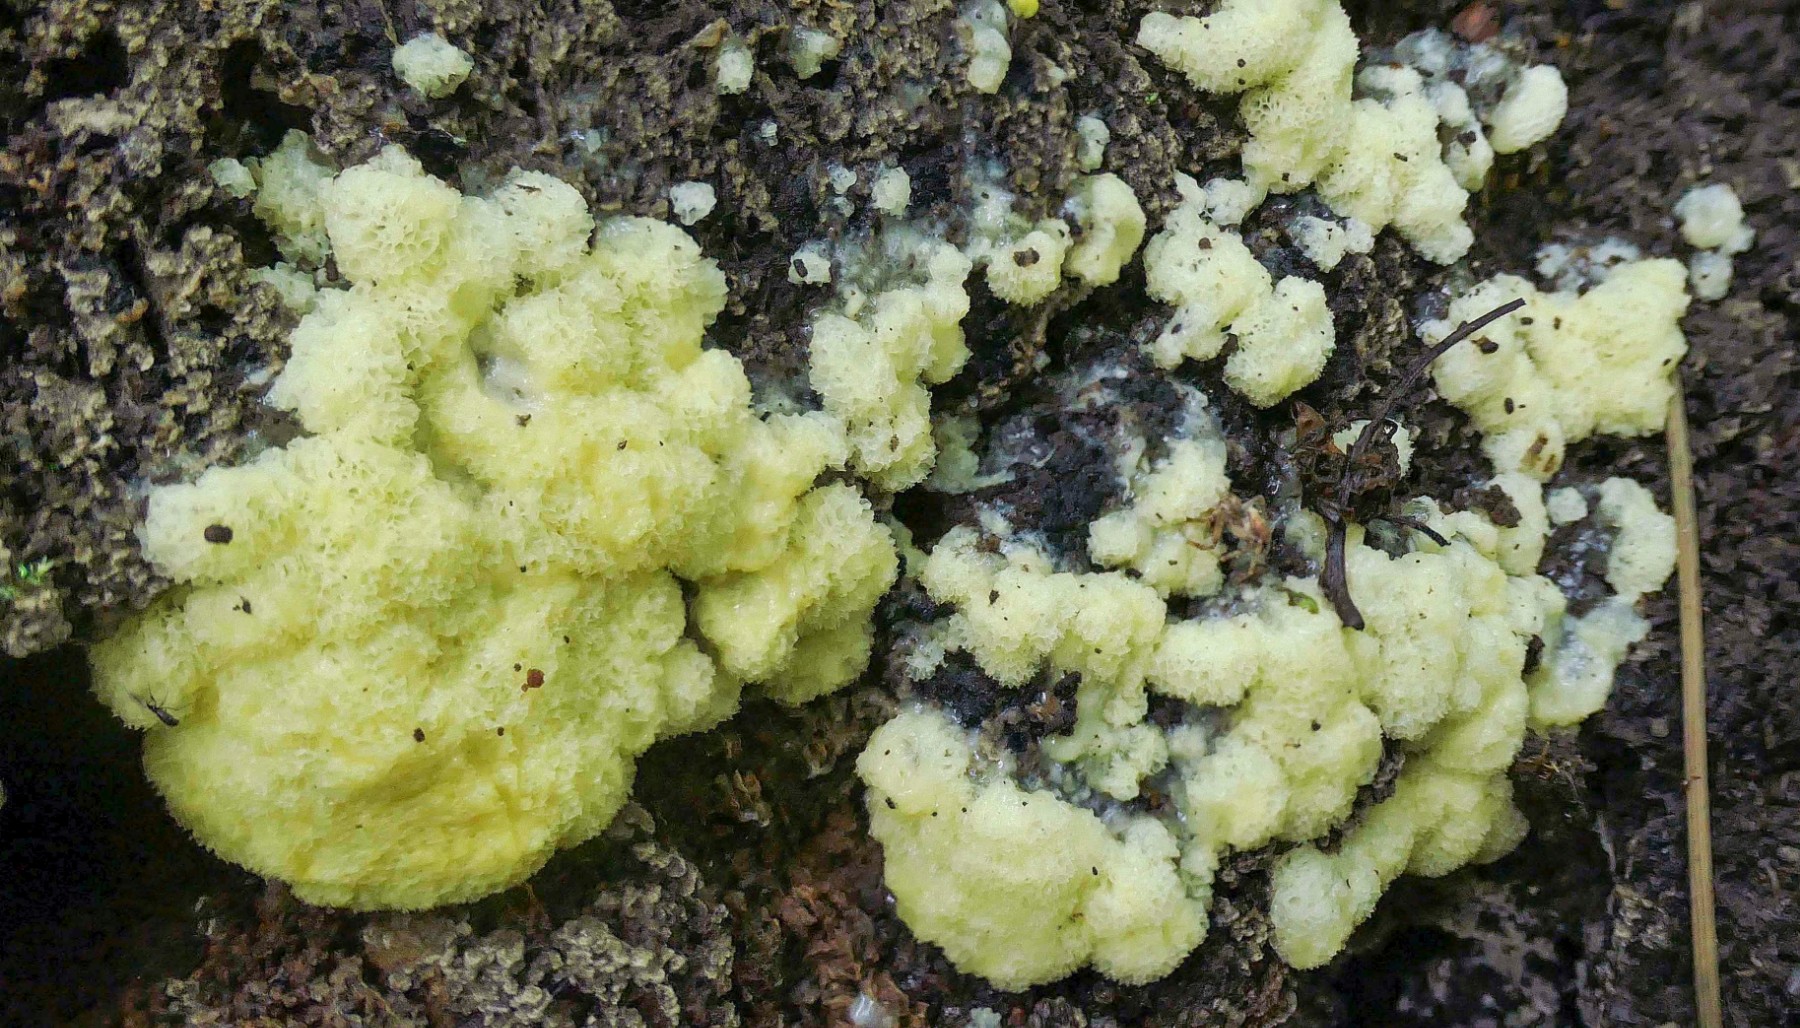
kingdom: Protozoa
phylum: Mycetozoa
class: Protosteliomycetes
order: Ceratiomyxales
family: Ceratiomyxaceae
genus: Ceratiomyxa
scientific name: Ceratiomyxa fruticulosa
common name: Honeycomb coral slime mold
